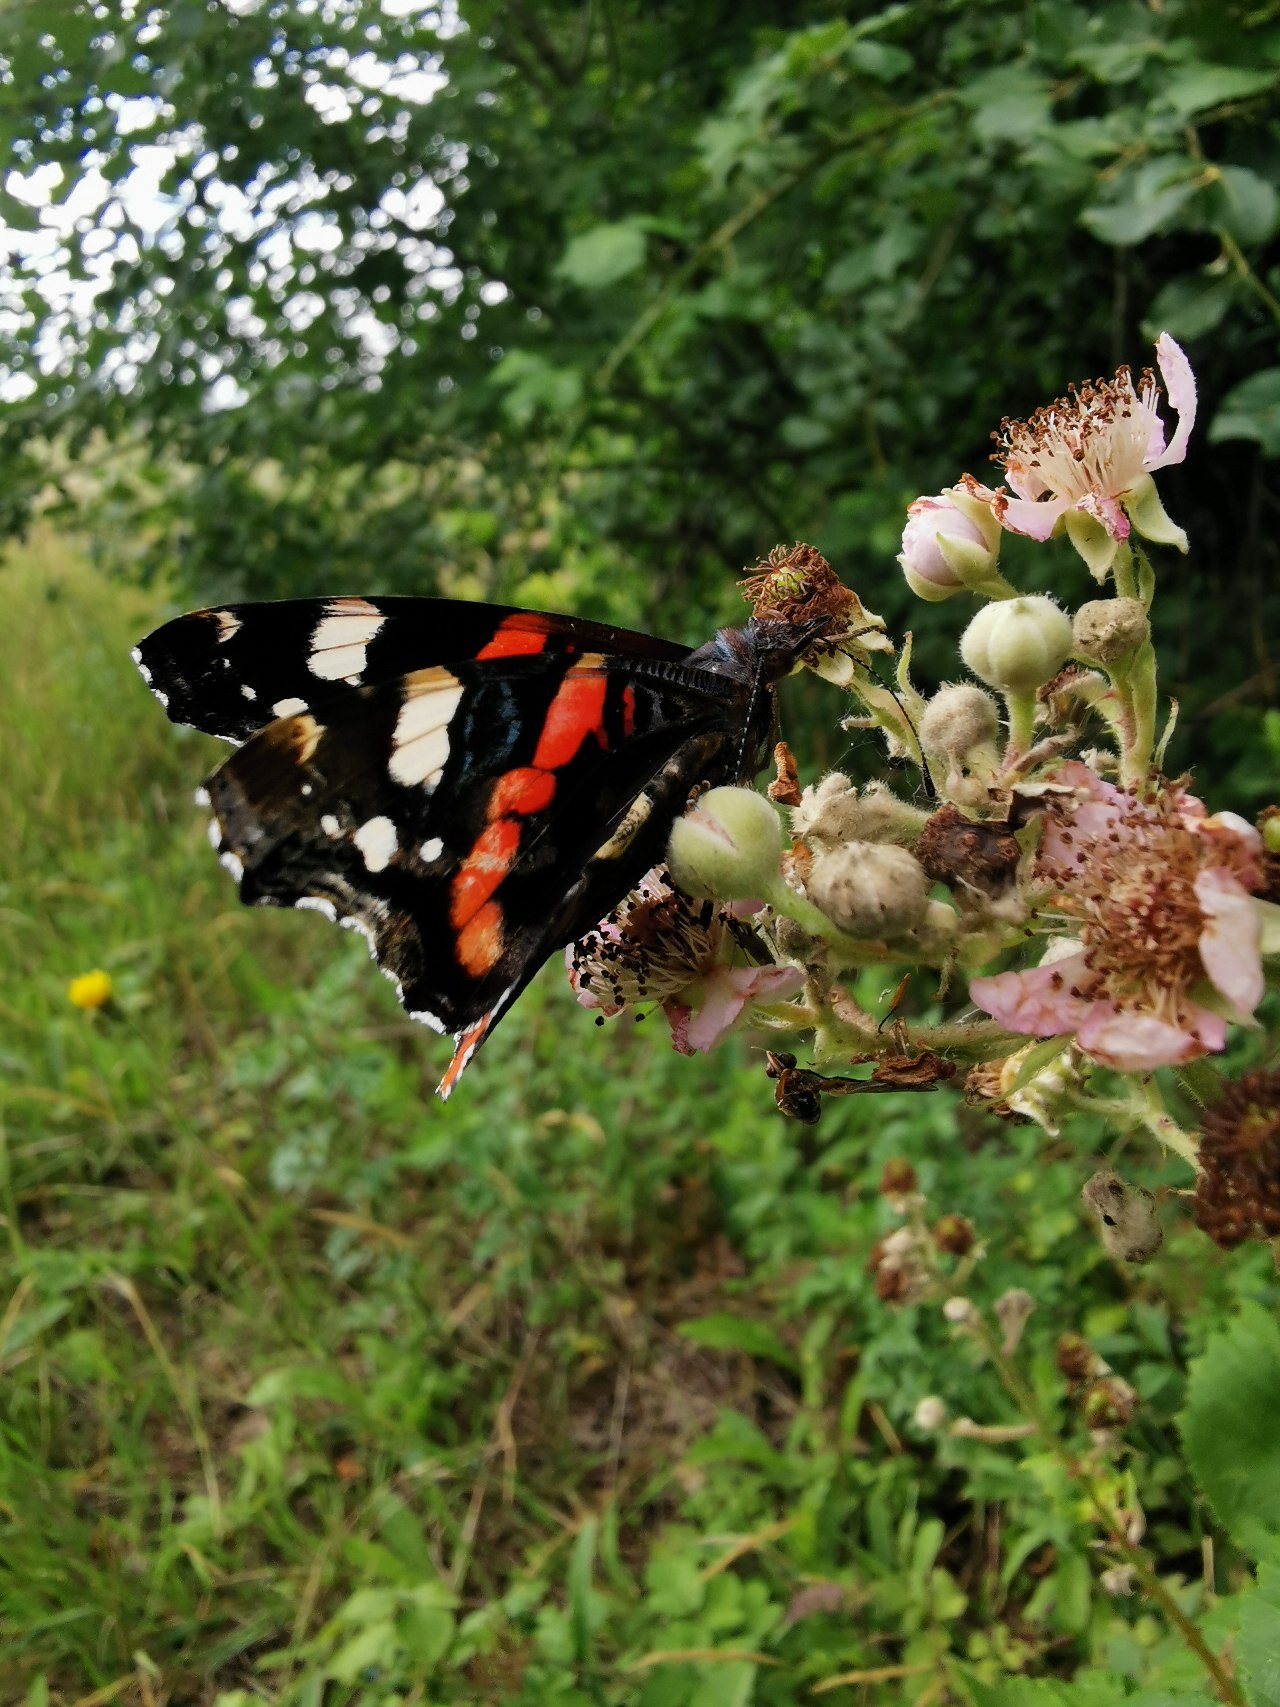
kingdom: Animalia
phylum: Arthropoda
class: Insecta
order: Lepidoptera
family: Nymphalidae
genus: Vanessa
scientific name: Vanessa atalanta
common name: Admiral
